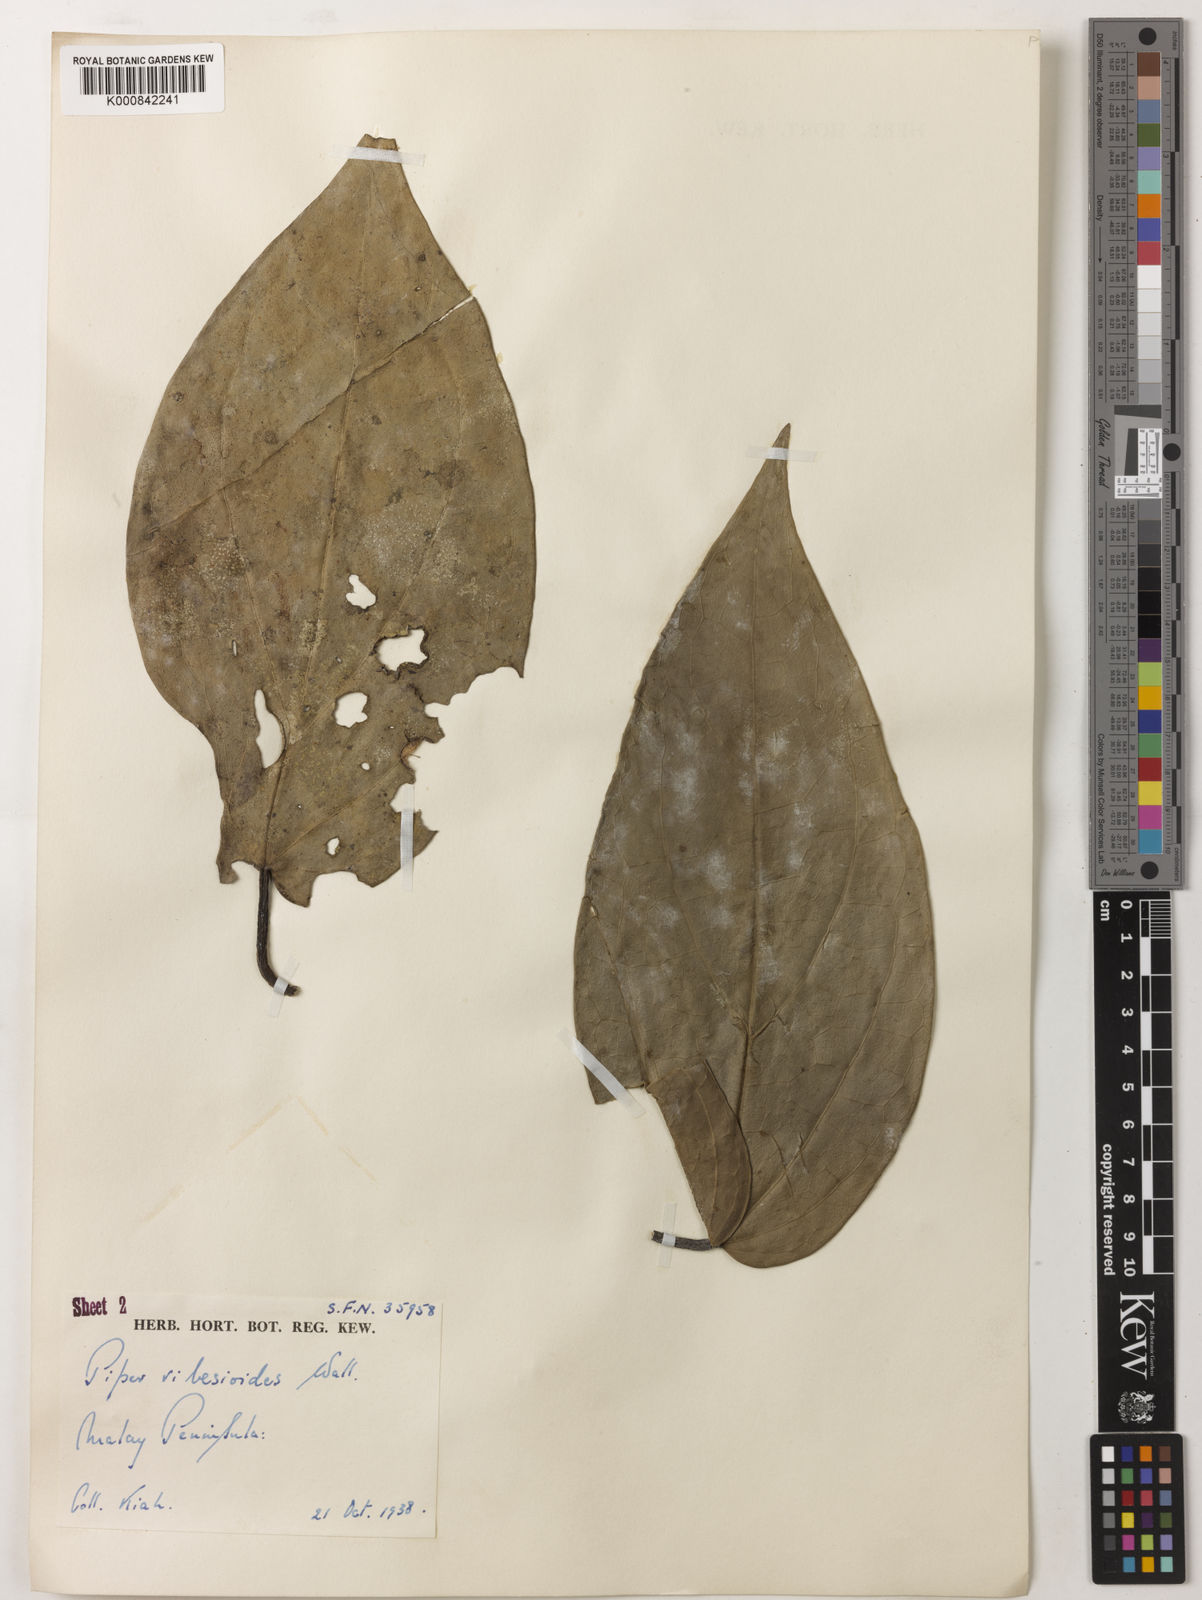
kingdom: Plantae
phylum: Tracheophyta
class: Magnoliopsida
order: Piperales
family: Piperaceae
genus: Piper
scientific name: Piper ribesioides
